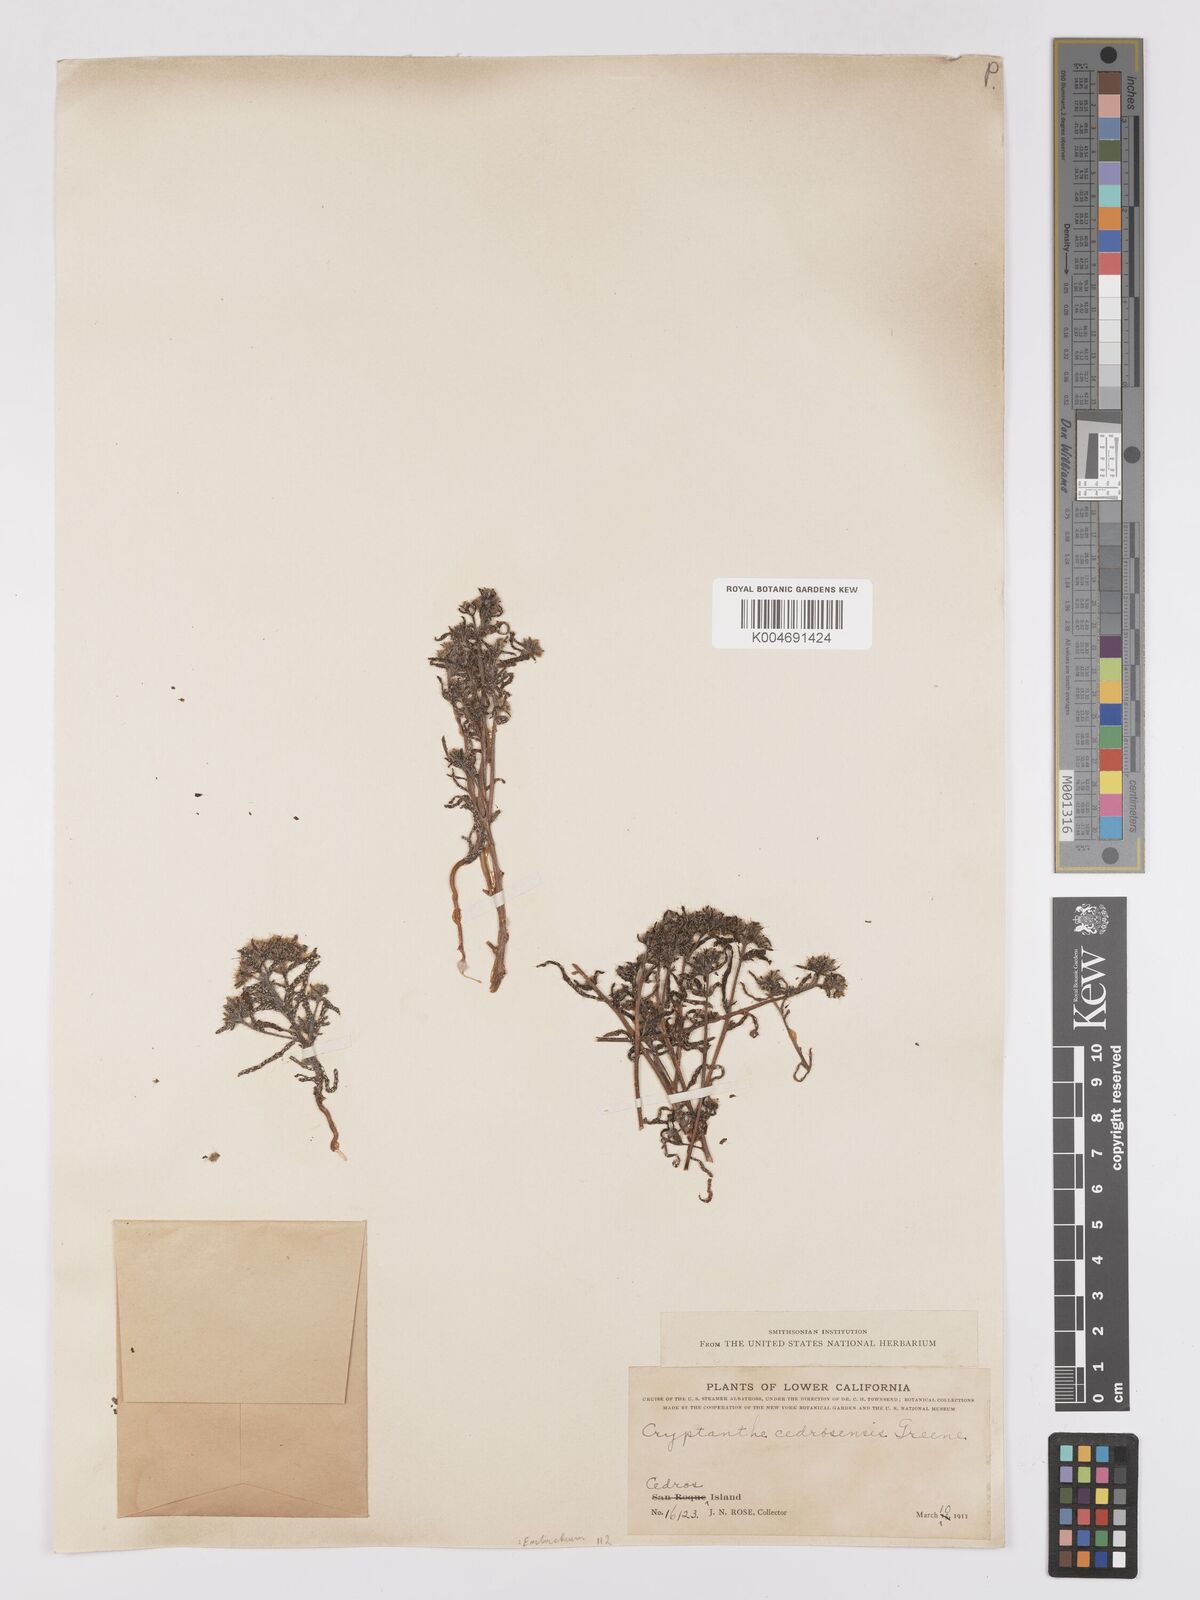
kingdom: Plantae
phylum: Tracheophyta
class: Magnoliopsida
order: Boraginales
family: Boraginaceae
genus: Cryptantha
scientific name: Cryptantha maritima
